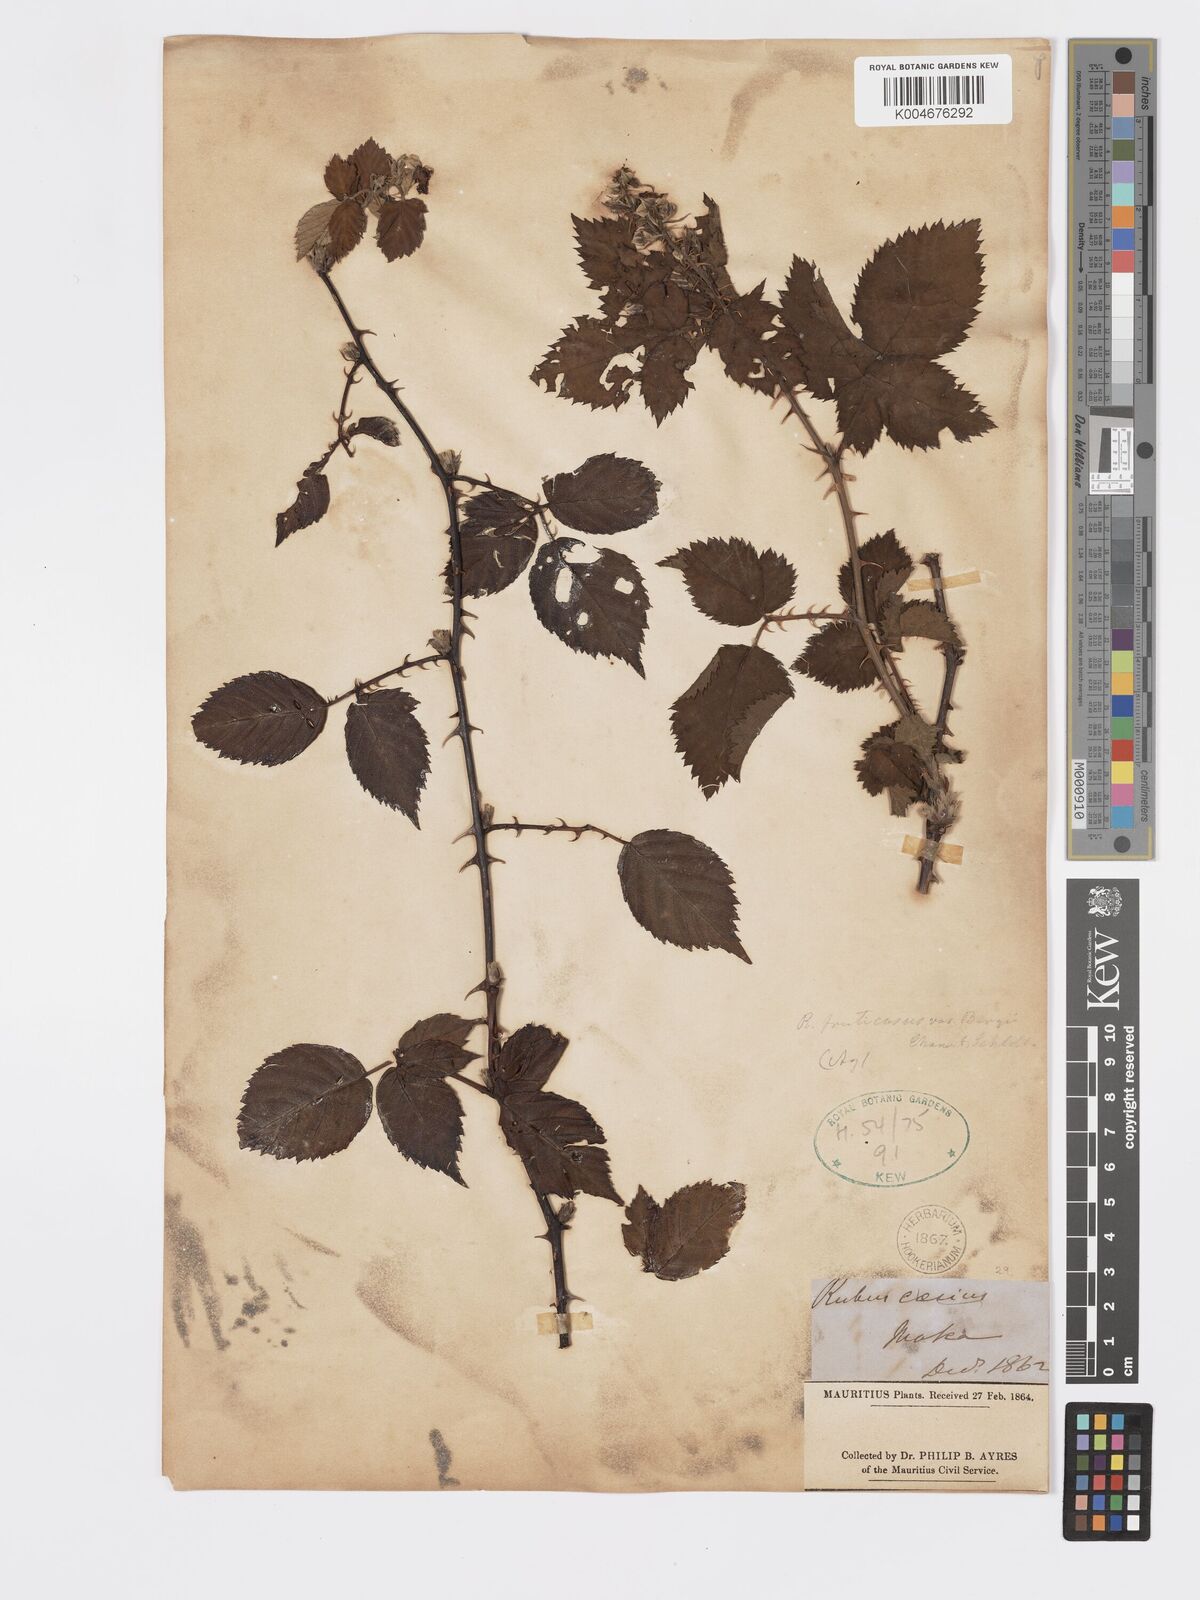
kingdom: Plantae
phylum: Tracheophyta
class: Magnoliopsida
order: Rosales
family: Rosaceae
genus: Rubus
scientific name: Rubus fruticosus
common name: Blackberry, bramble
